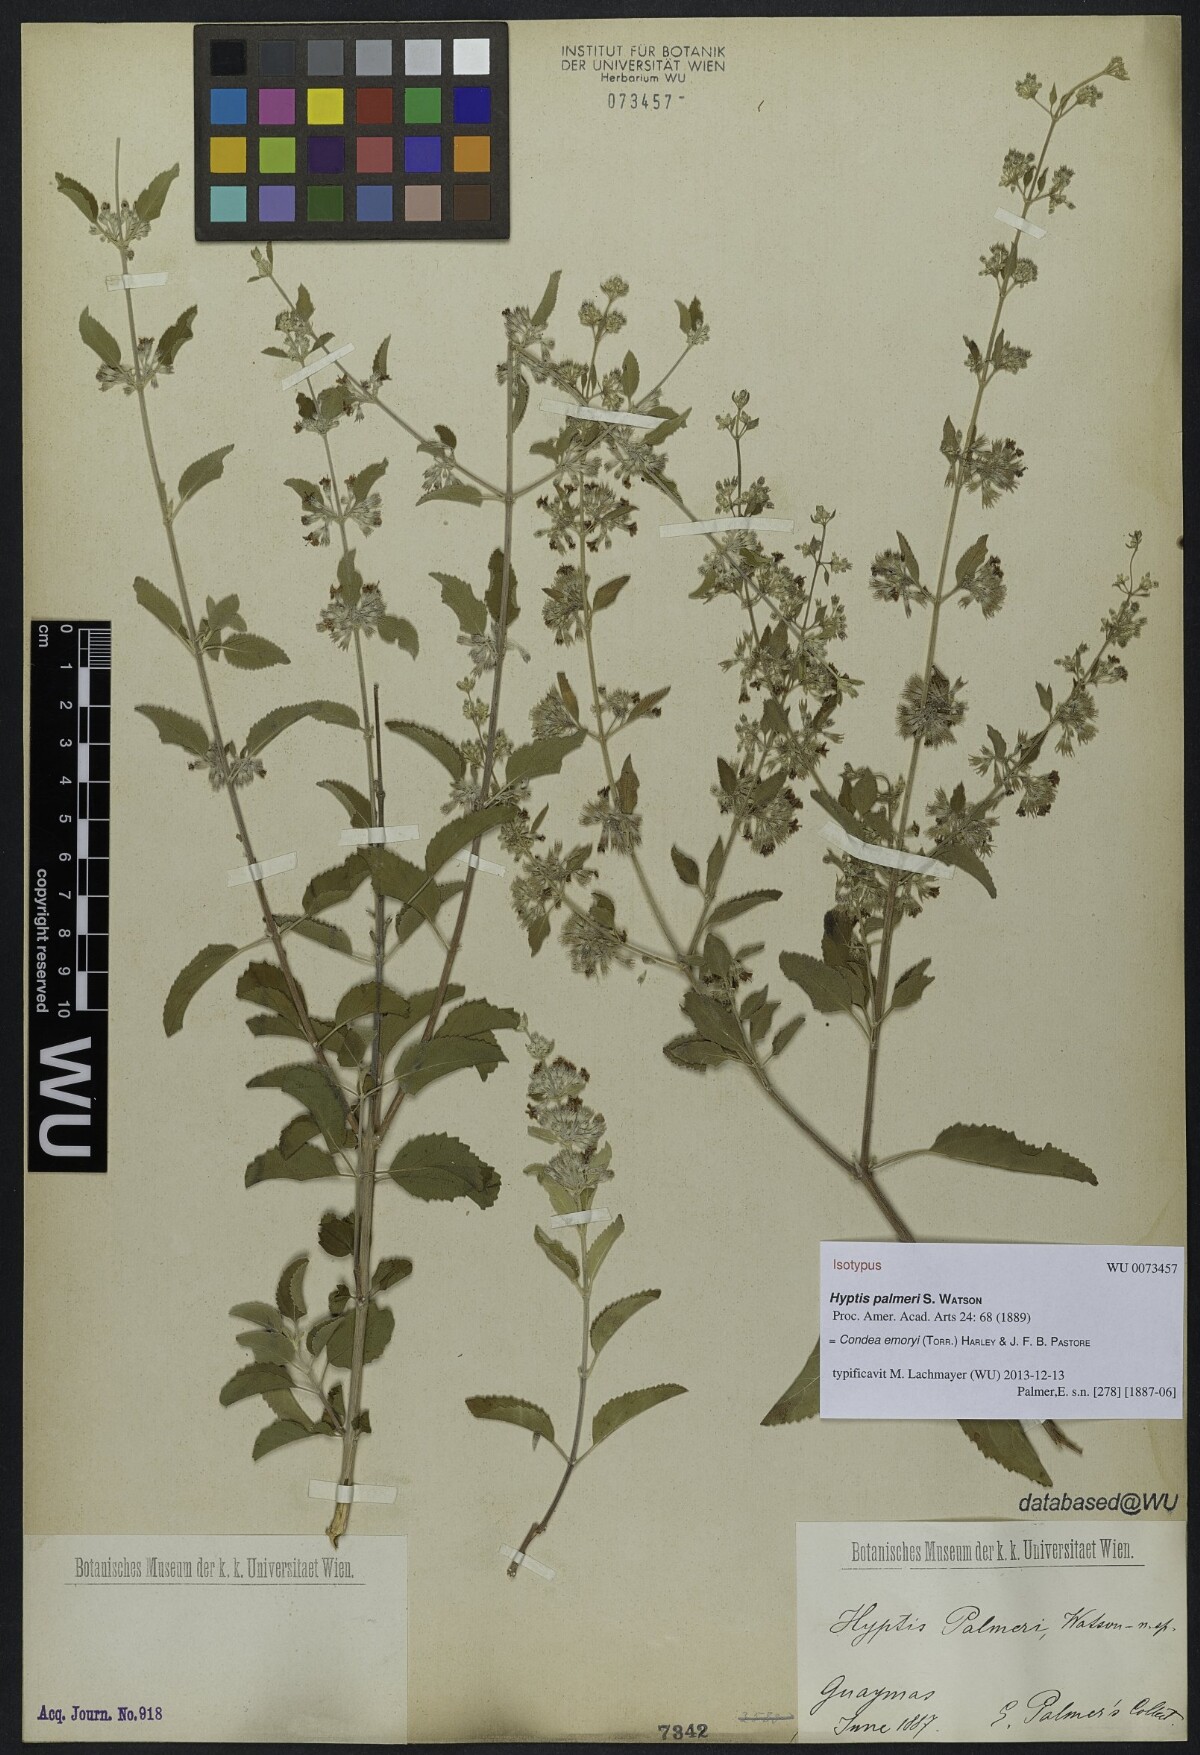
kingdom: Plantae
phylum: Tracheophyta
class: Magnoliopsida
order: Lamiales
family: Lamiaceae
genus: Condea
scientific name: Condea emoryi
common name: Chia
